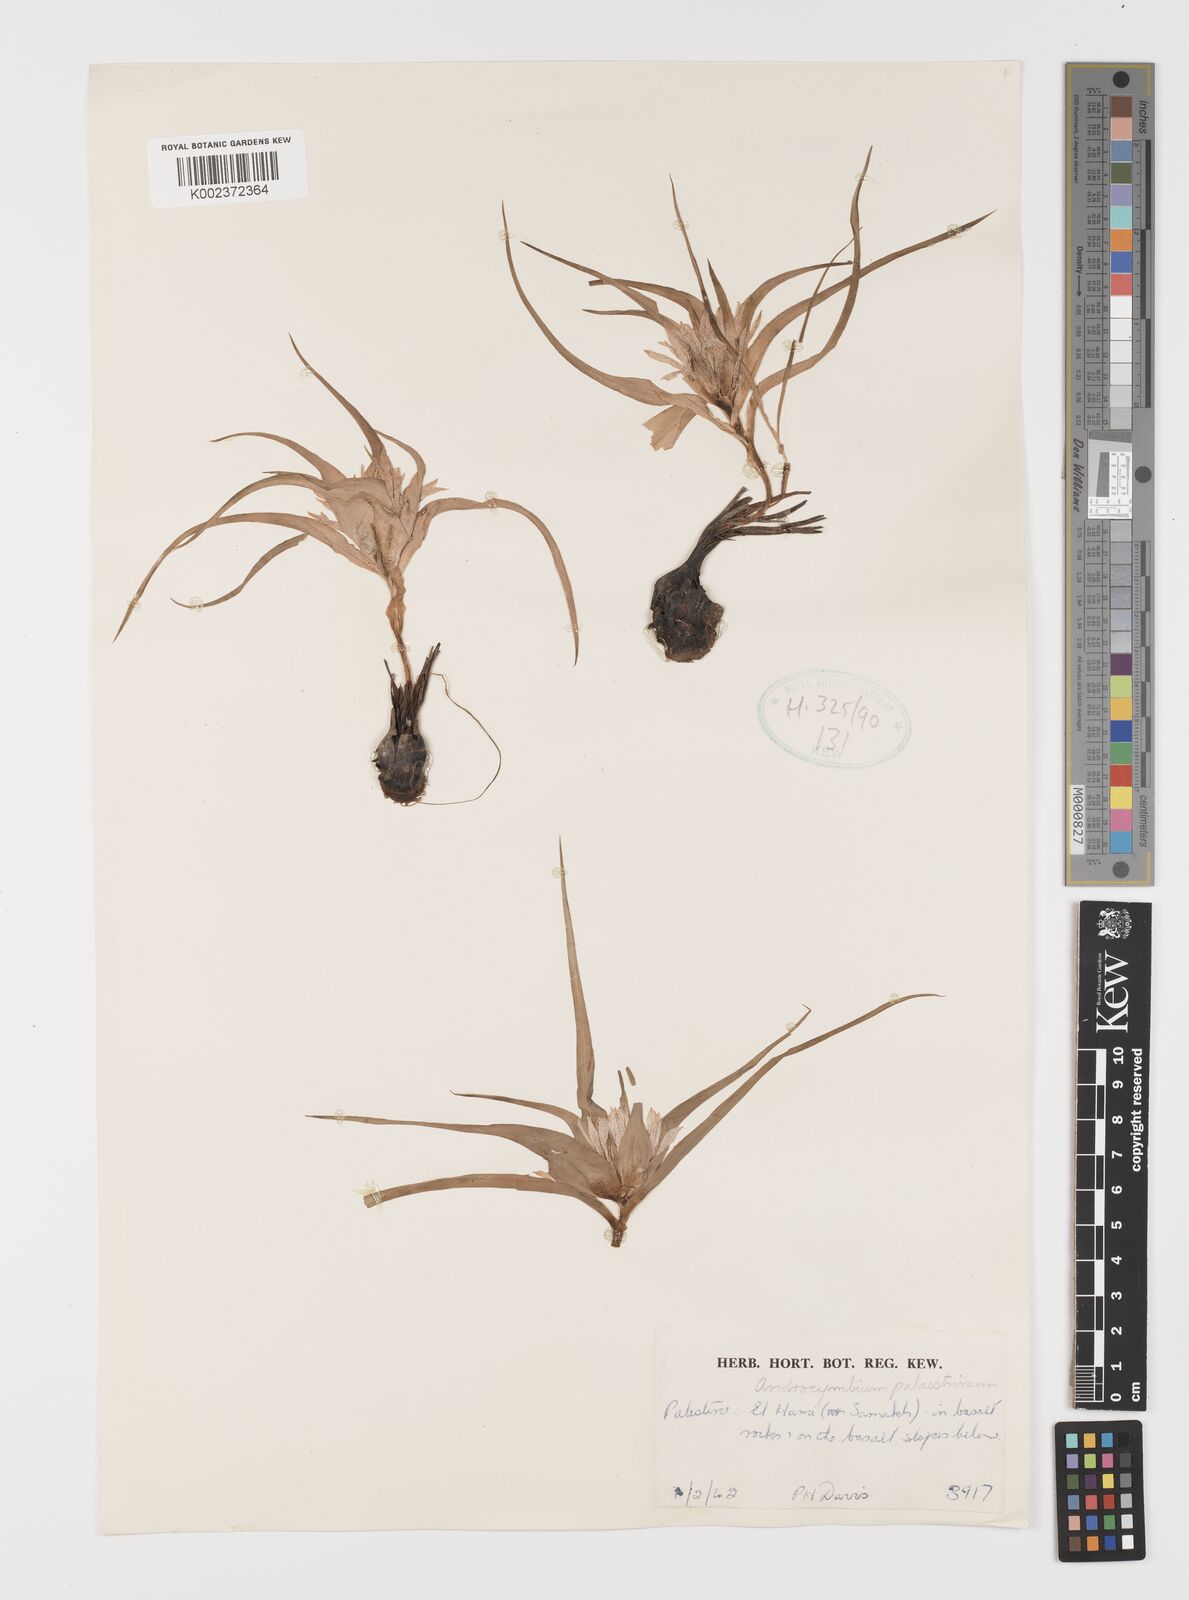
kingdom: Plantae
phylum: Tracheophyta
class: Liliopsida
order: Liliales
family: Colchicaceae
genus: Colchicum
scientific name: Colchicum palaestinum
